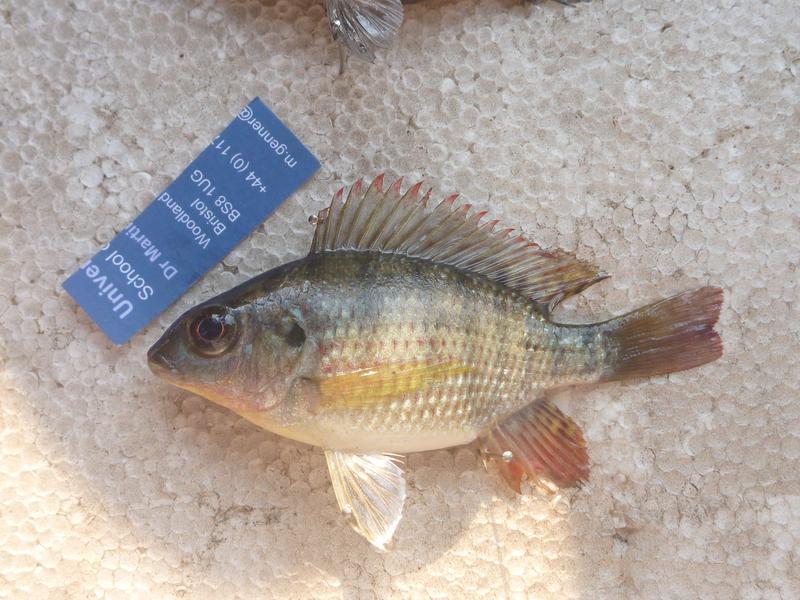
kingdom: Animalia
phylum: Chordata
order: Perciformes
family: Cichlidae
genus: Oreochromis
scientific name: Oreochromis upembae
